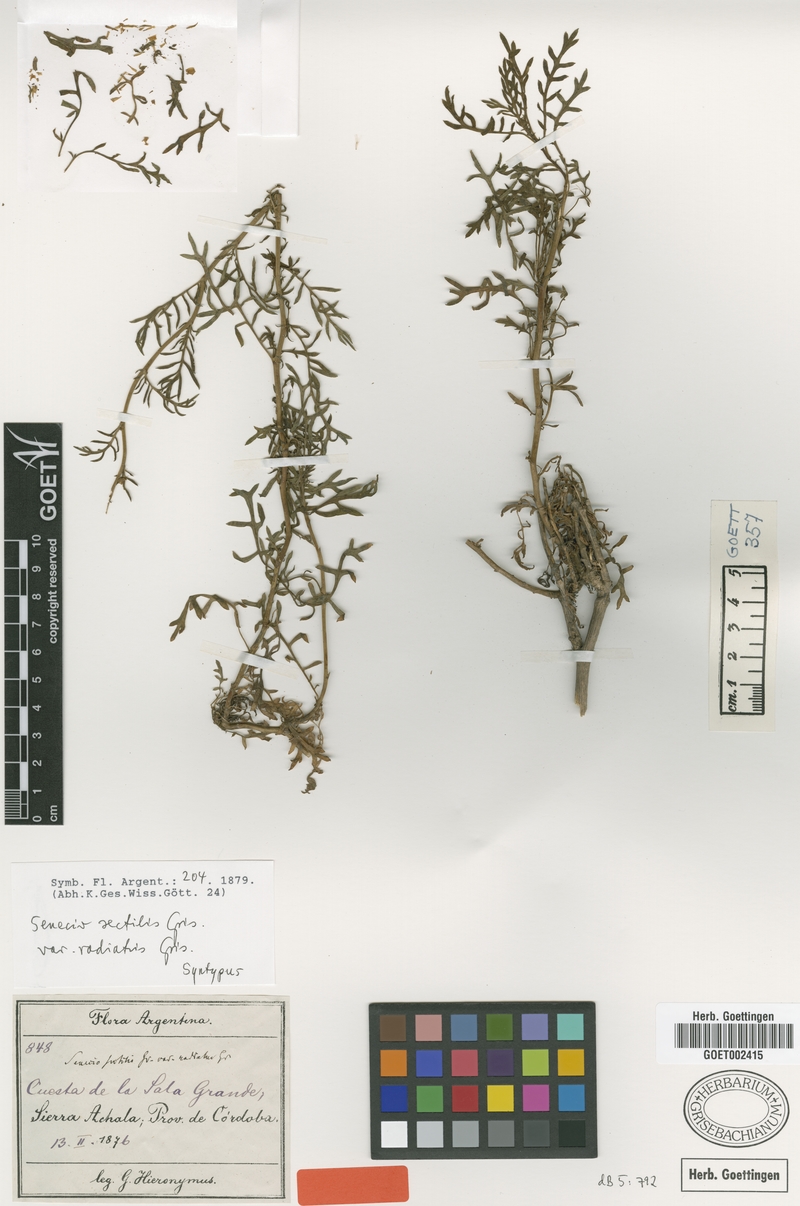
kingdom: Plantae
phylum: Tracheophyta
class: Magnoliopsida
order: Asterales
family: Asteraceae
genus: Senecio
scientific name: Senecio sectilis
